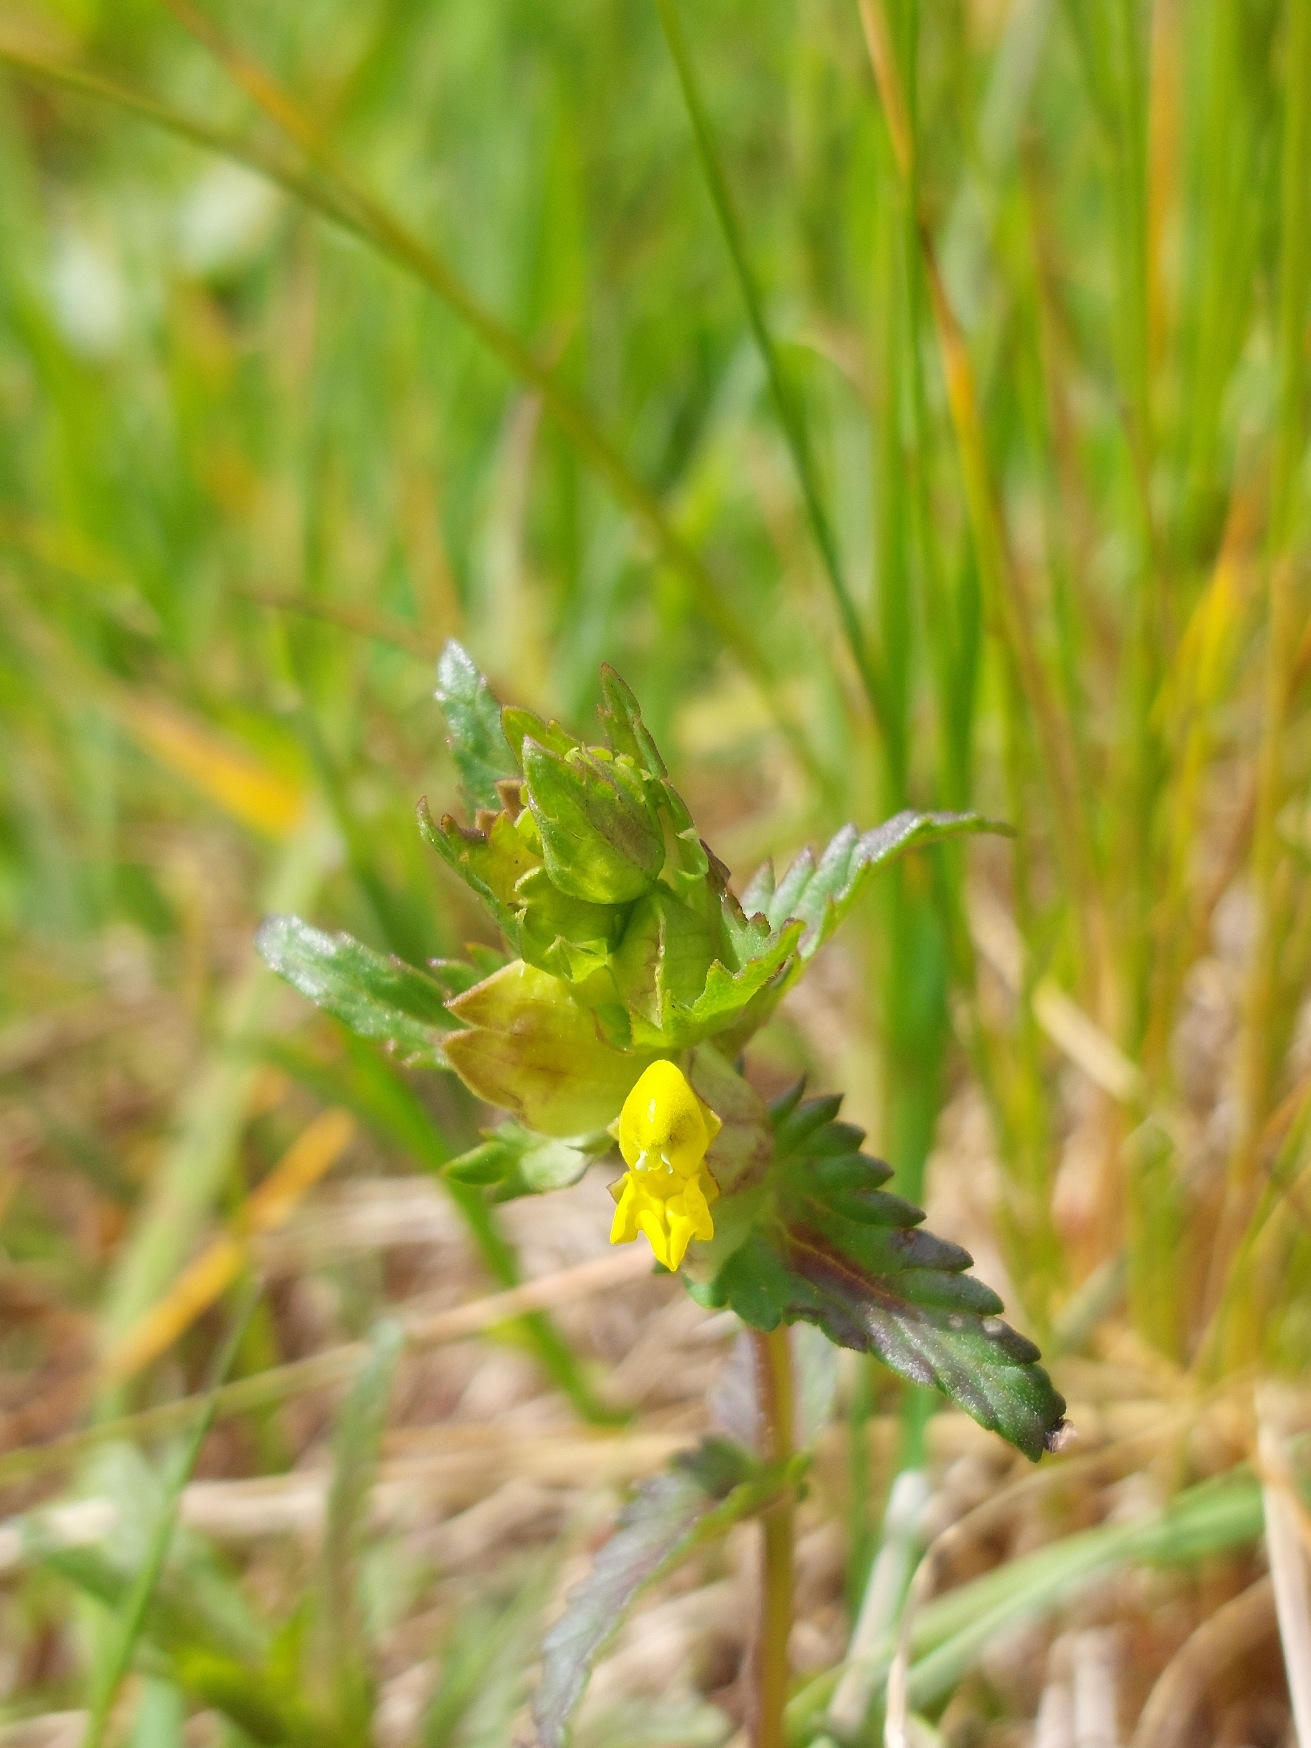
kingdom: Plantae
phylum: Tracheophyta
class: Magnoliopsida
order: Lamiales
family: Orobanchaceae
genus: Rhinanthus
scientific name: Rhinanthus minor
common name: Liden skjaller
